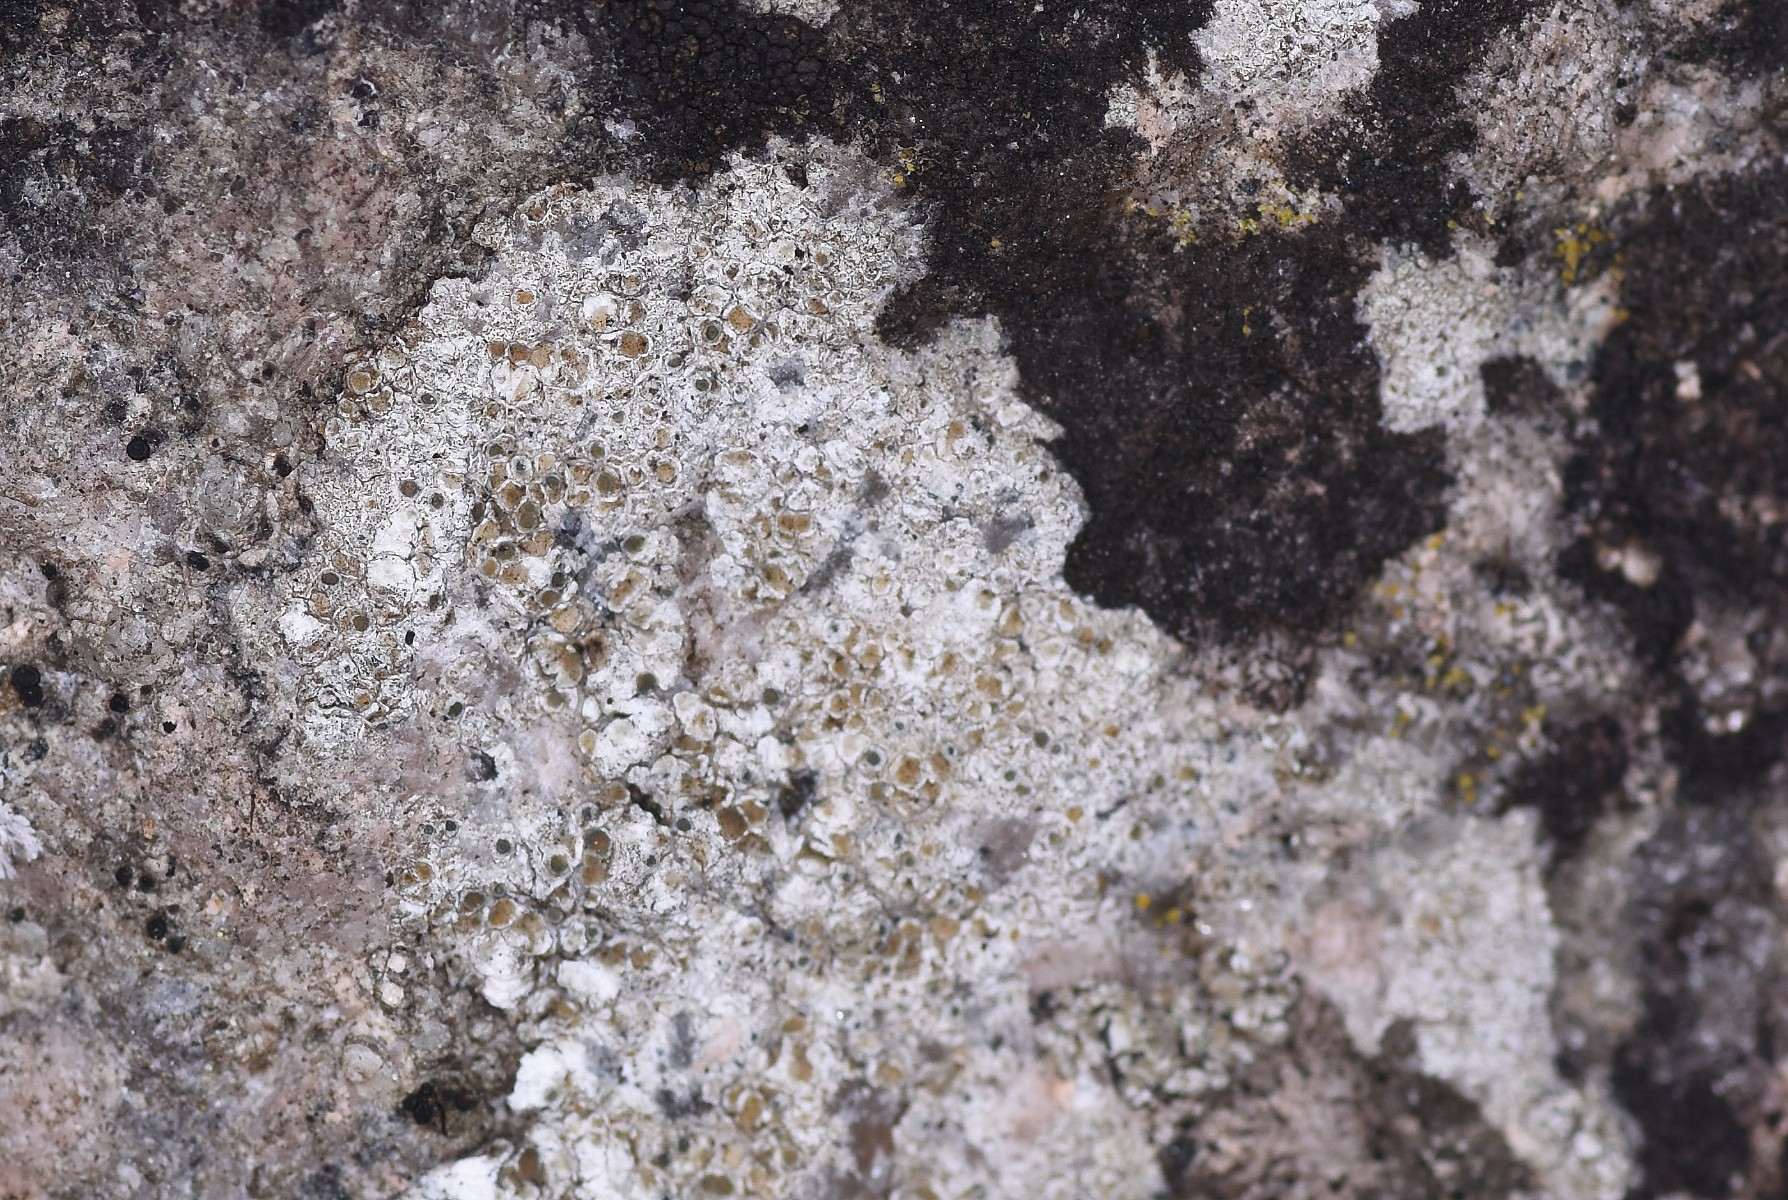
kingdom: Fungi
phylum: Ascomycota
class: Lecanoromycetes
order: Lecanorales
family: Lecanoraceae
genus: Polyozosia
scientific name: Polyozosia albescens
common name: cement-kantskivelav
